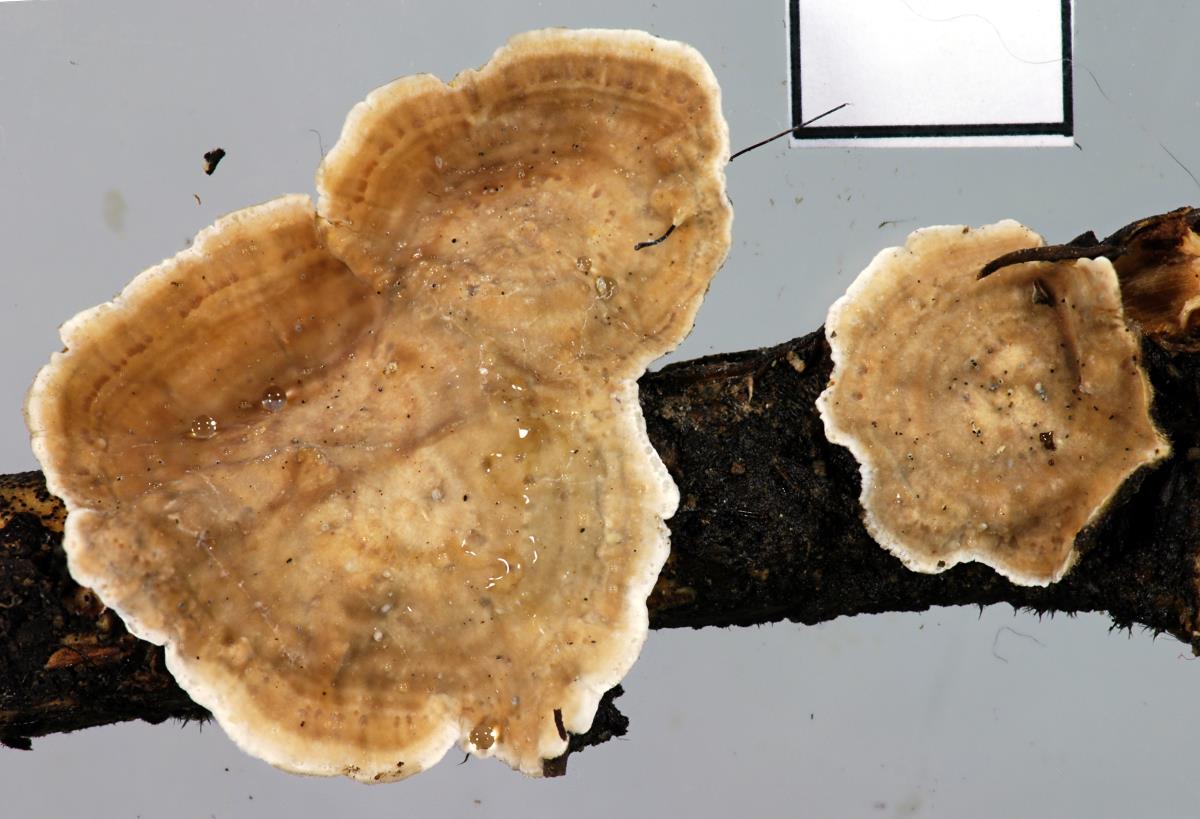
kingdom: Fungi
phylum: Basidiomycota
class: Agaricomycetes
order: Russulales
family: Stereaceae
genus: Stereum
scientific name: Stereum vellereum
